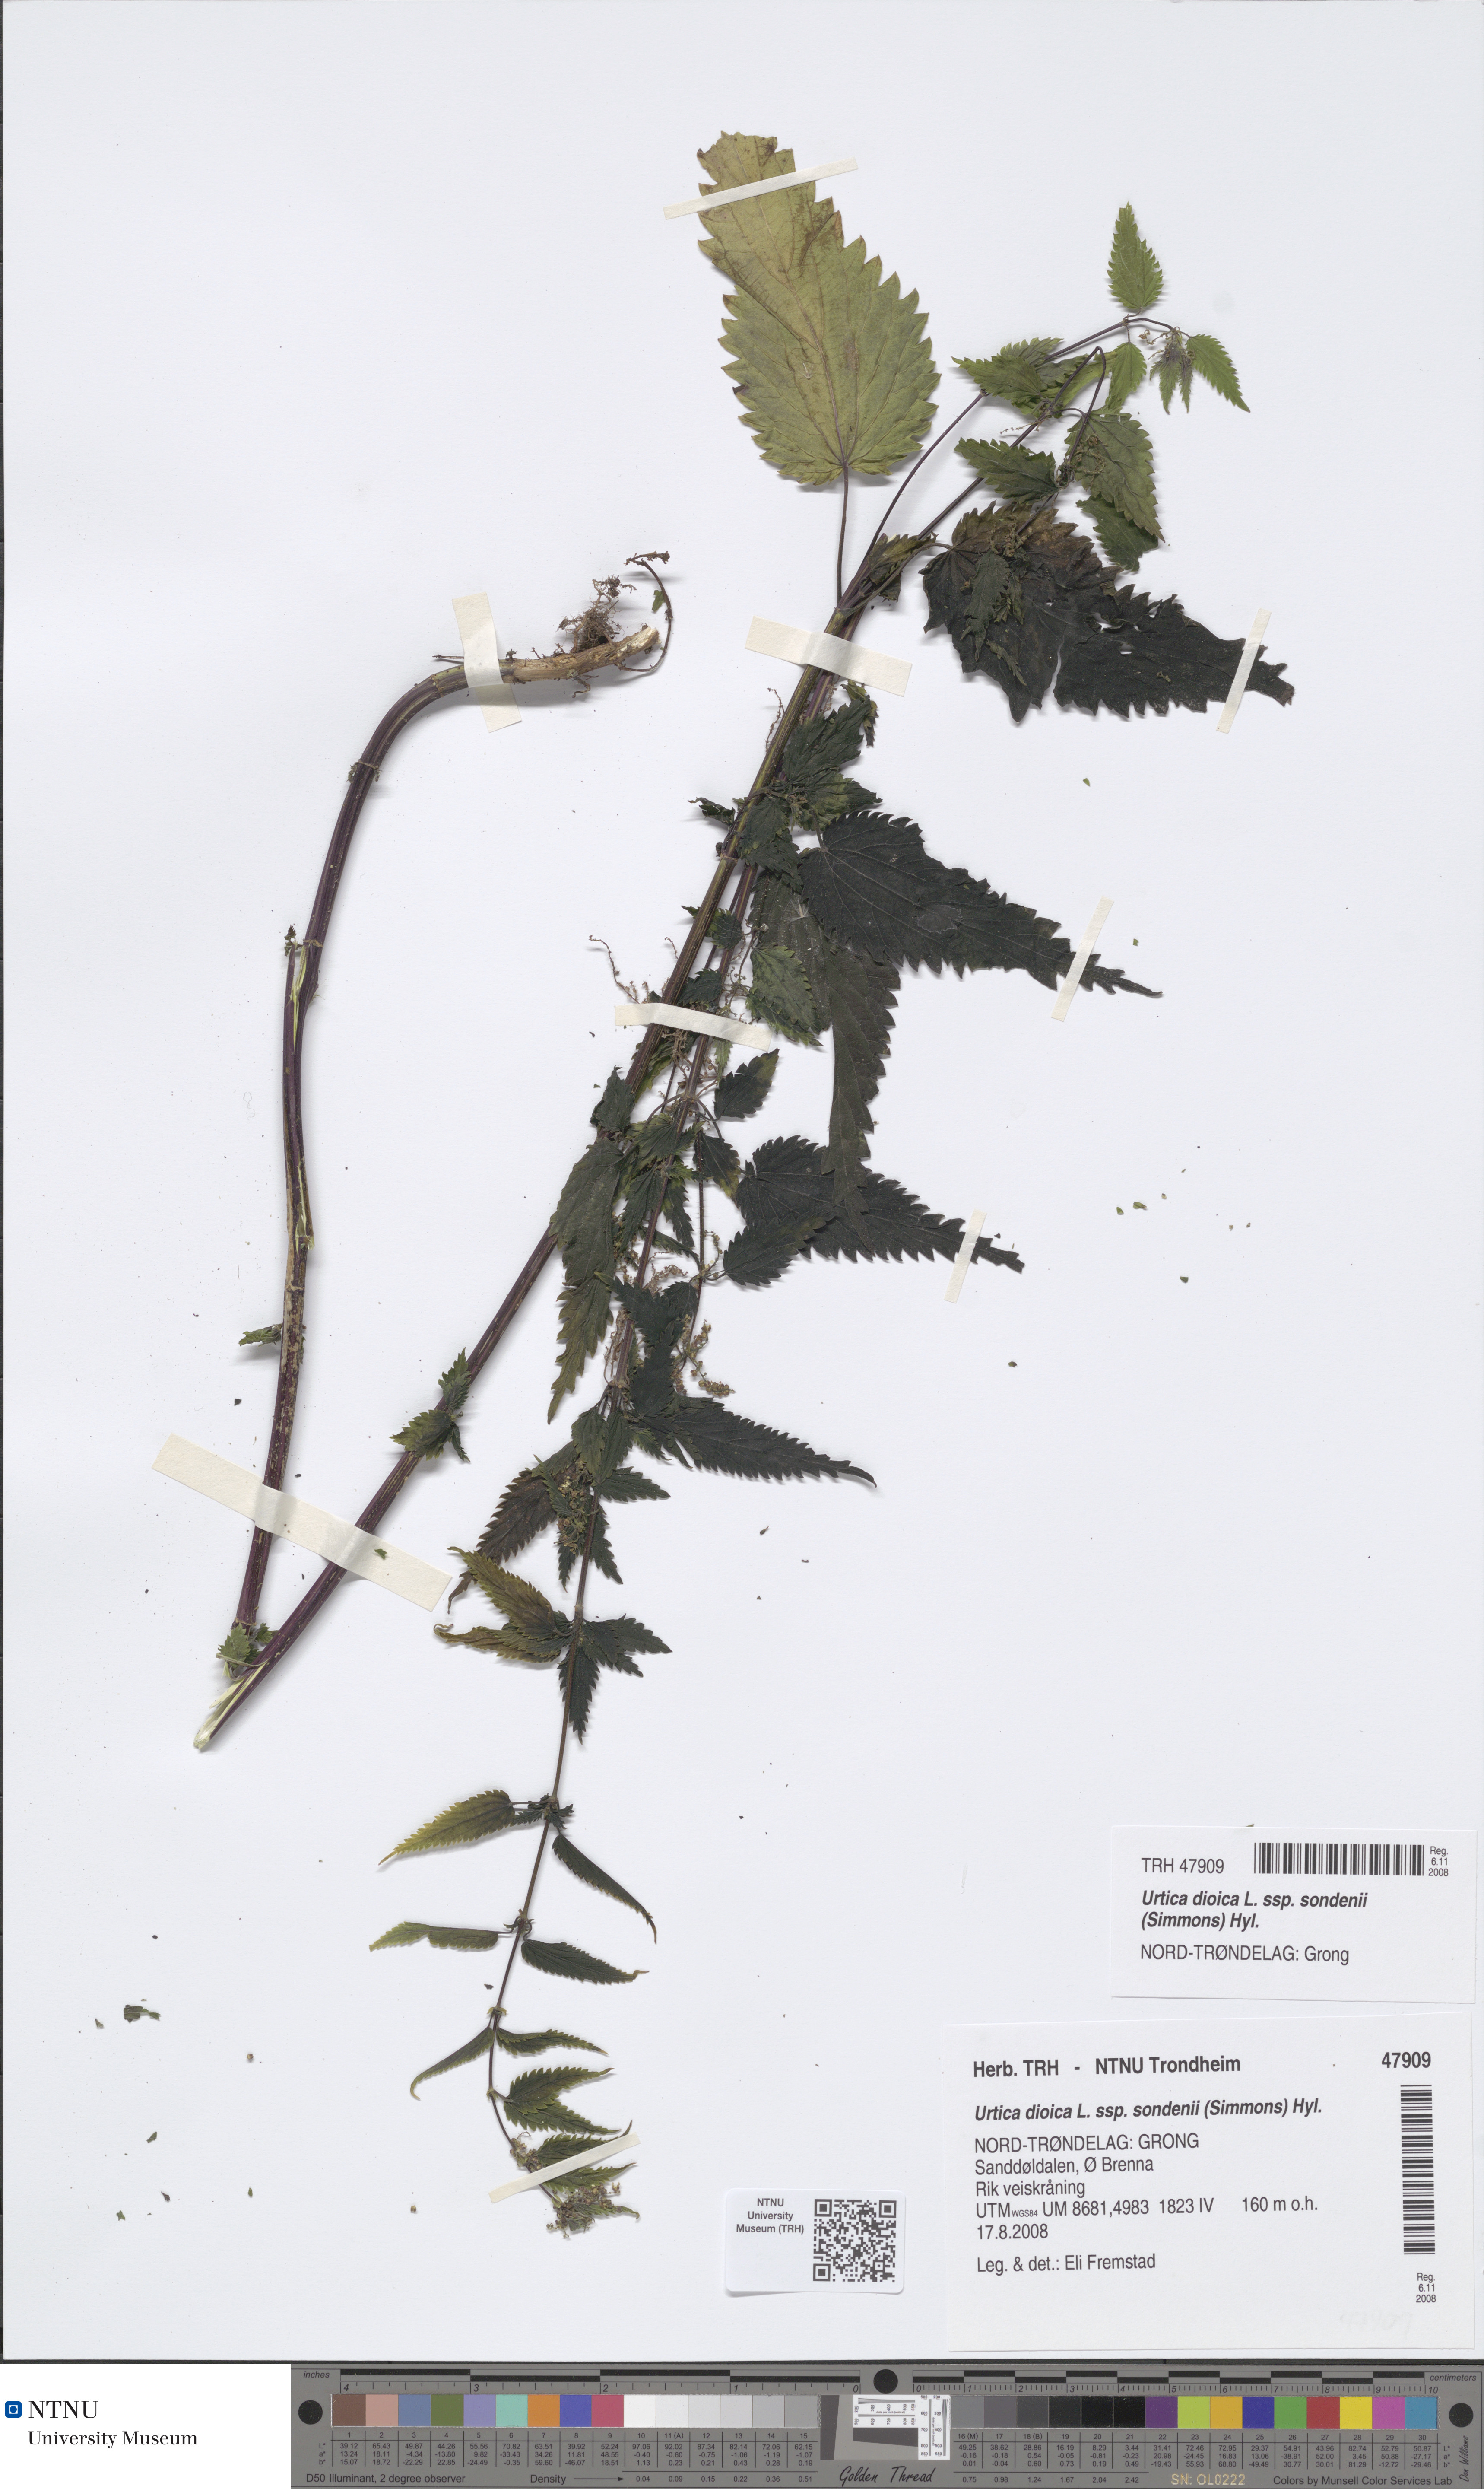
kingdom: Plantae
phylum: Tracheophyta
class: Magnoliopsida
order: Rosales
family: Urticaceae
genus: Urtica
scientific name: Urtica dioica
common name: Common nettle
